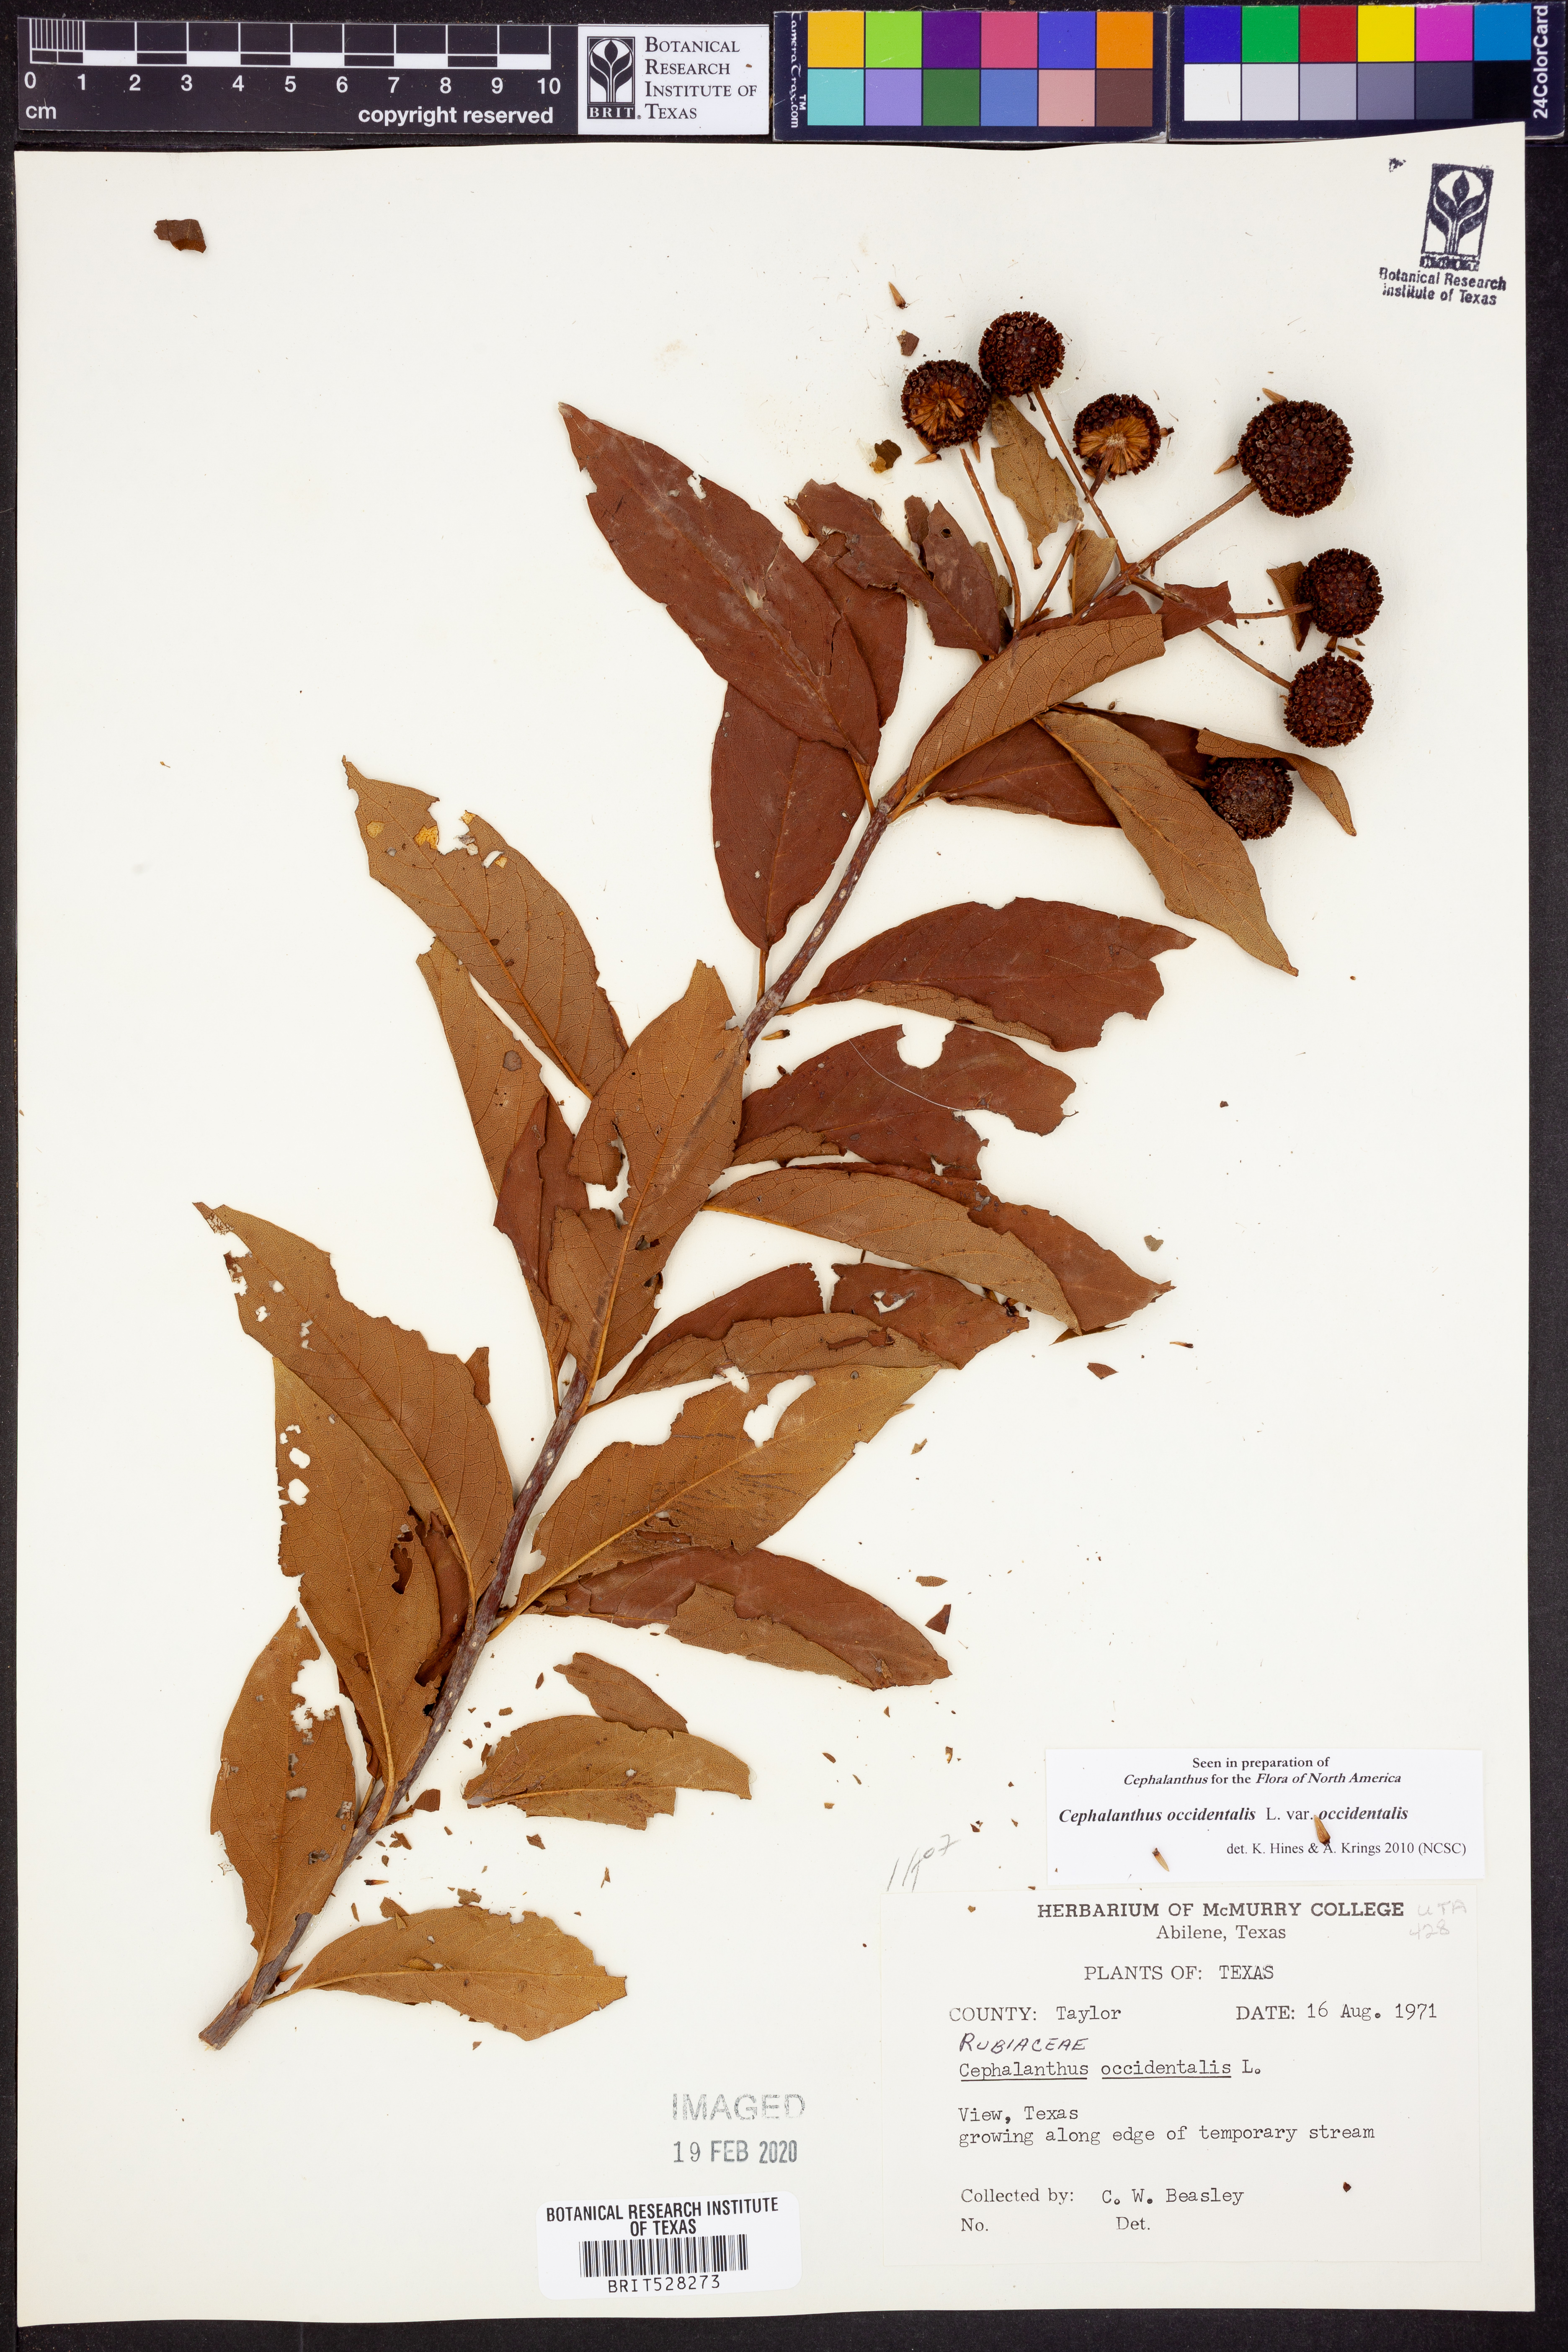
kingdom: Plantae
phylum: Tracheophyta
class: Magnoliopsida
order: Gentianales
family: Rubiaceae
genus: Cephalanthus
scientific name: Cephalanthus occidentalis
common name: Button-willow
